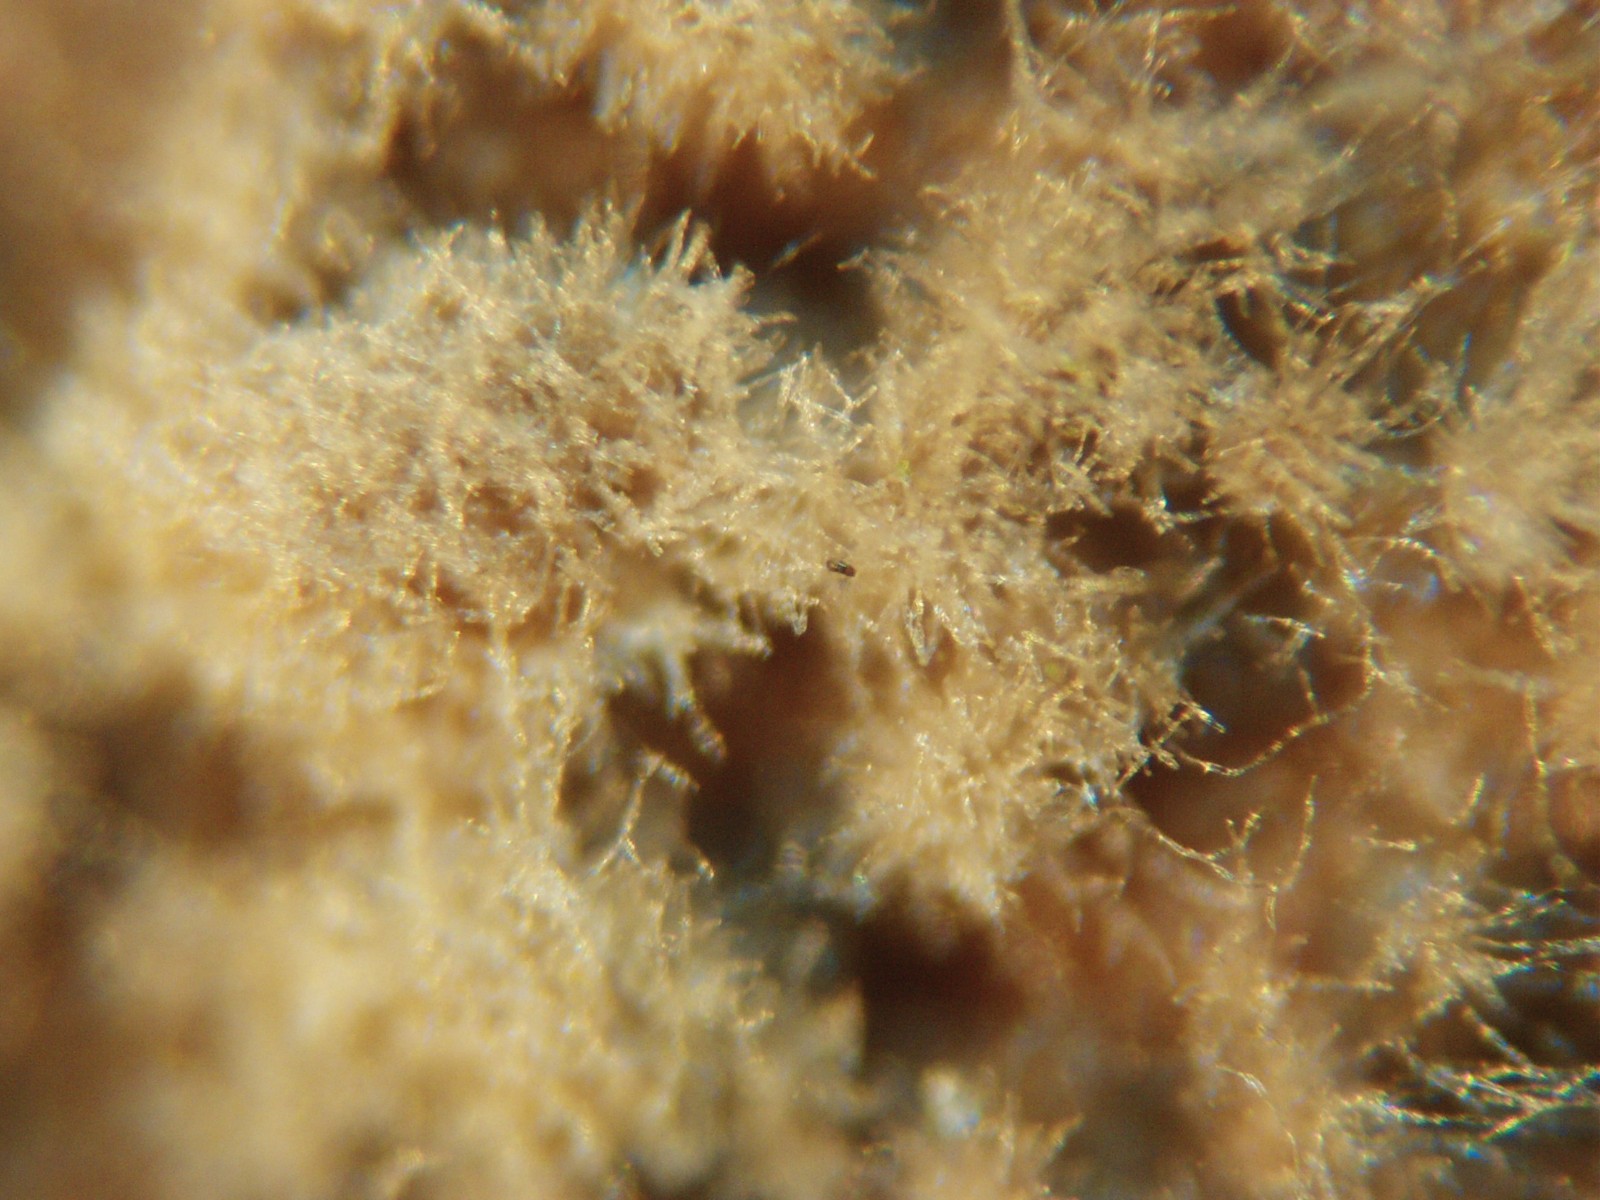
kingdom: Fungi
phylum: Ascomycota
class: Leotiomycetes
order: Helotiales
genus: Thedgonia
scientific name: Thedgonia ligustrina
